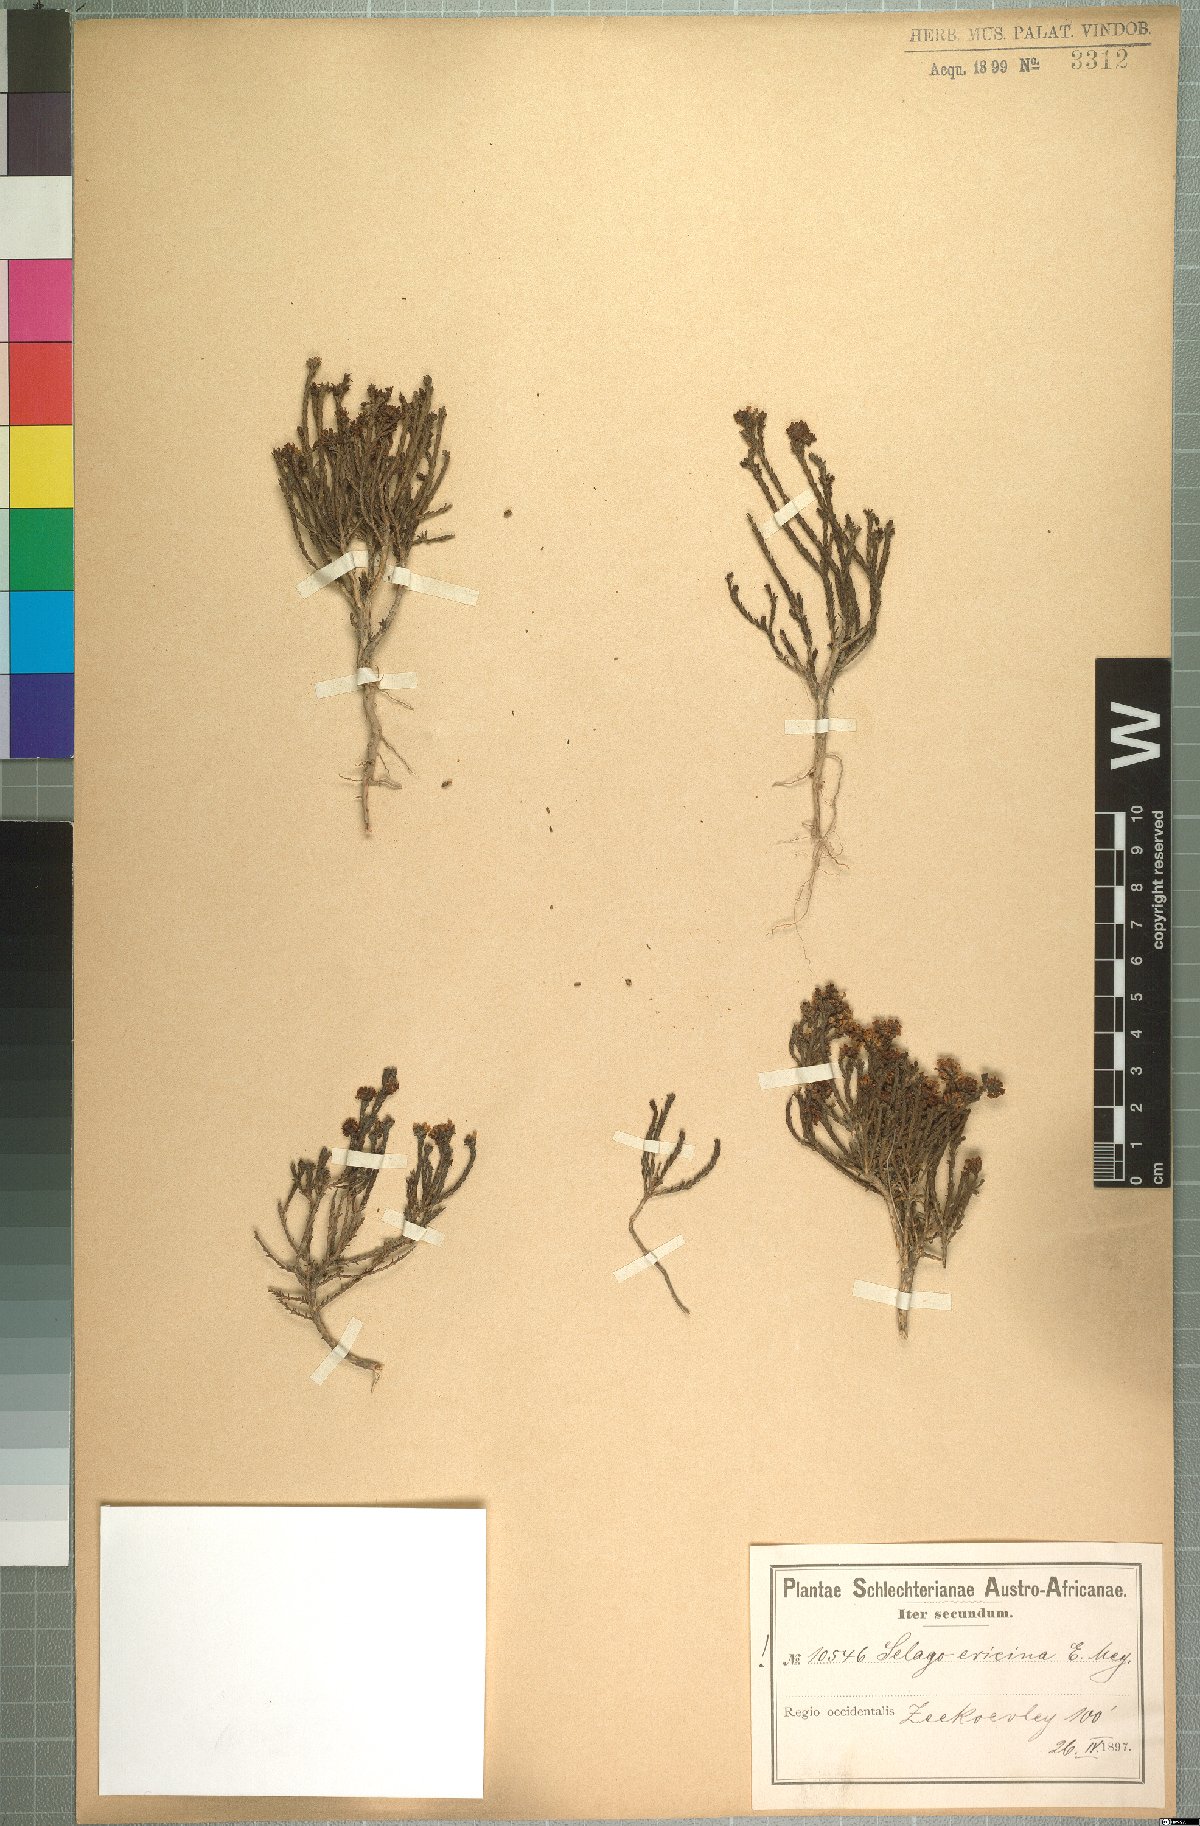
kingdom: Plantae
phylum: Tracheophyta
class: Magnoliopsida
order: Lamiales
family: Scrophulariaceae
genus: Selago
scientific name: Selago ramosissima
